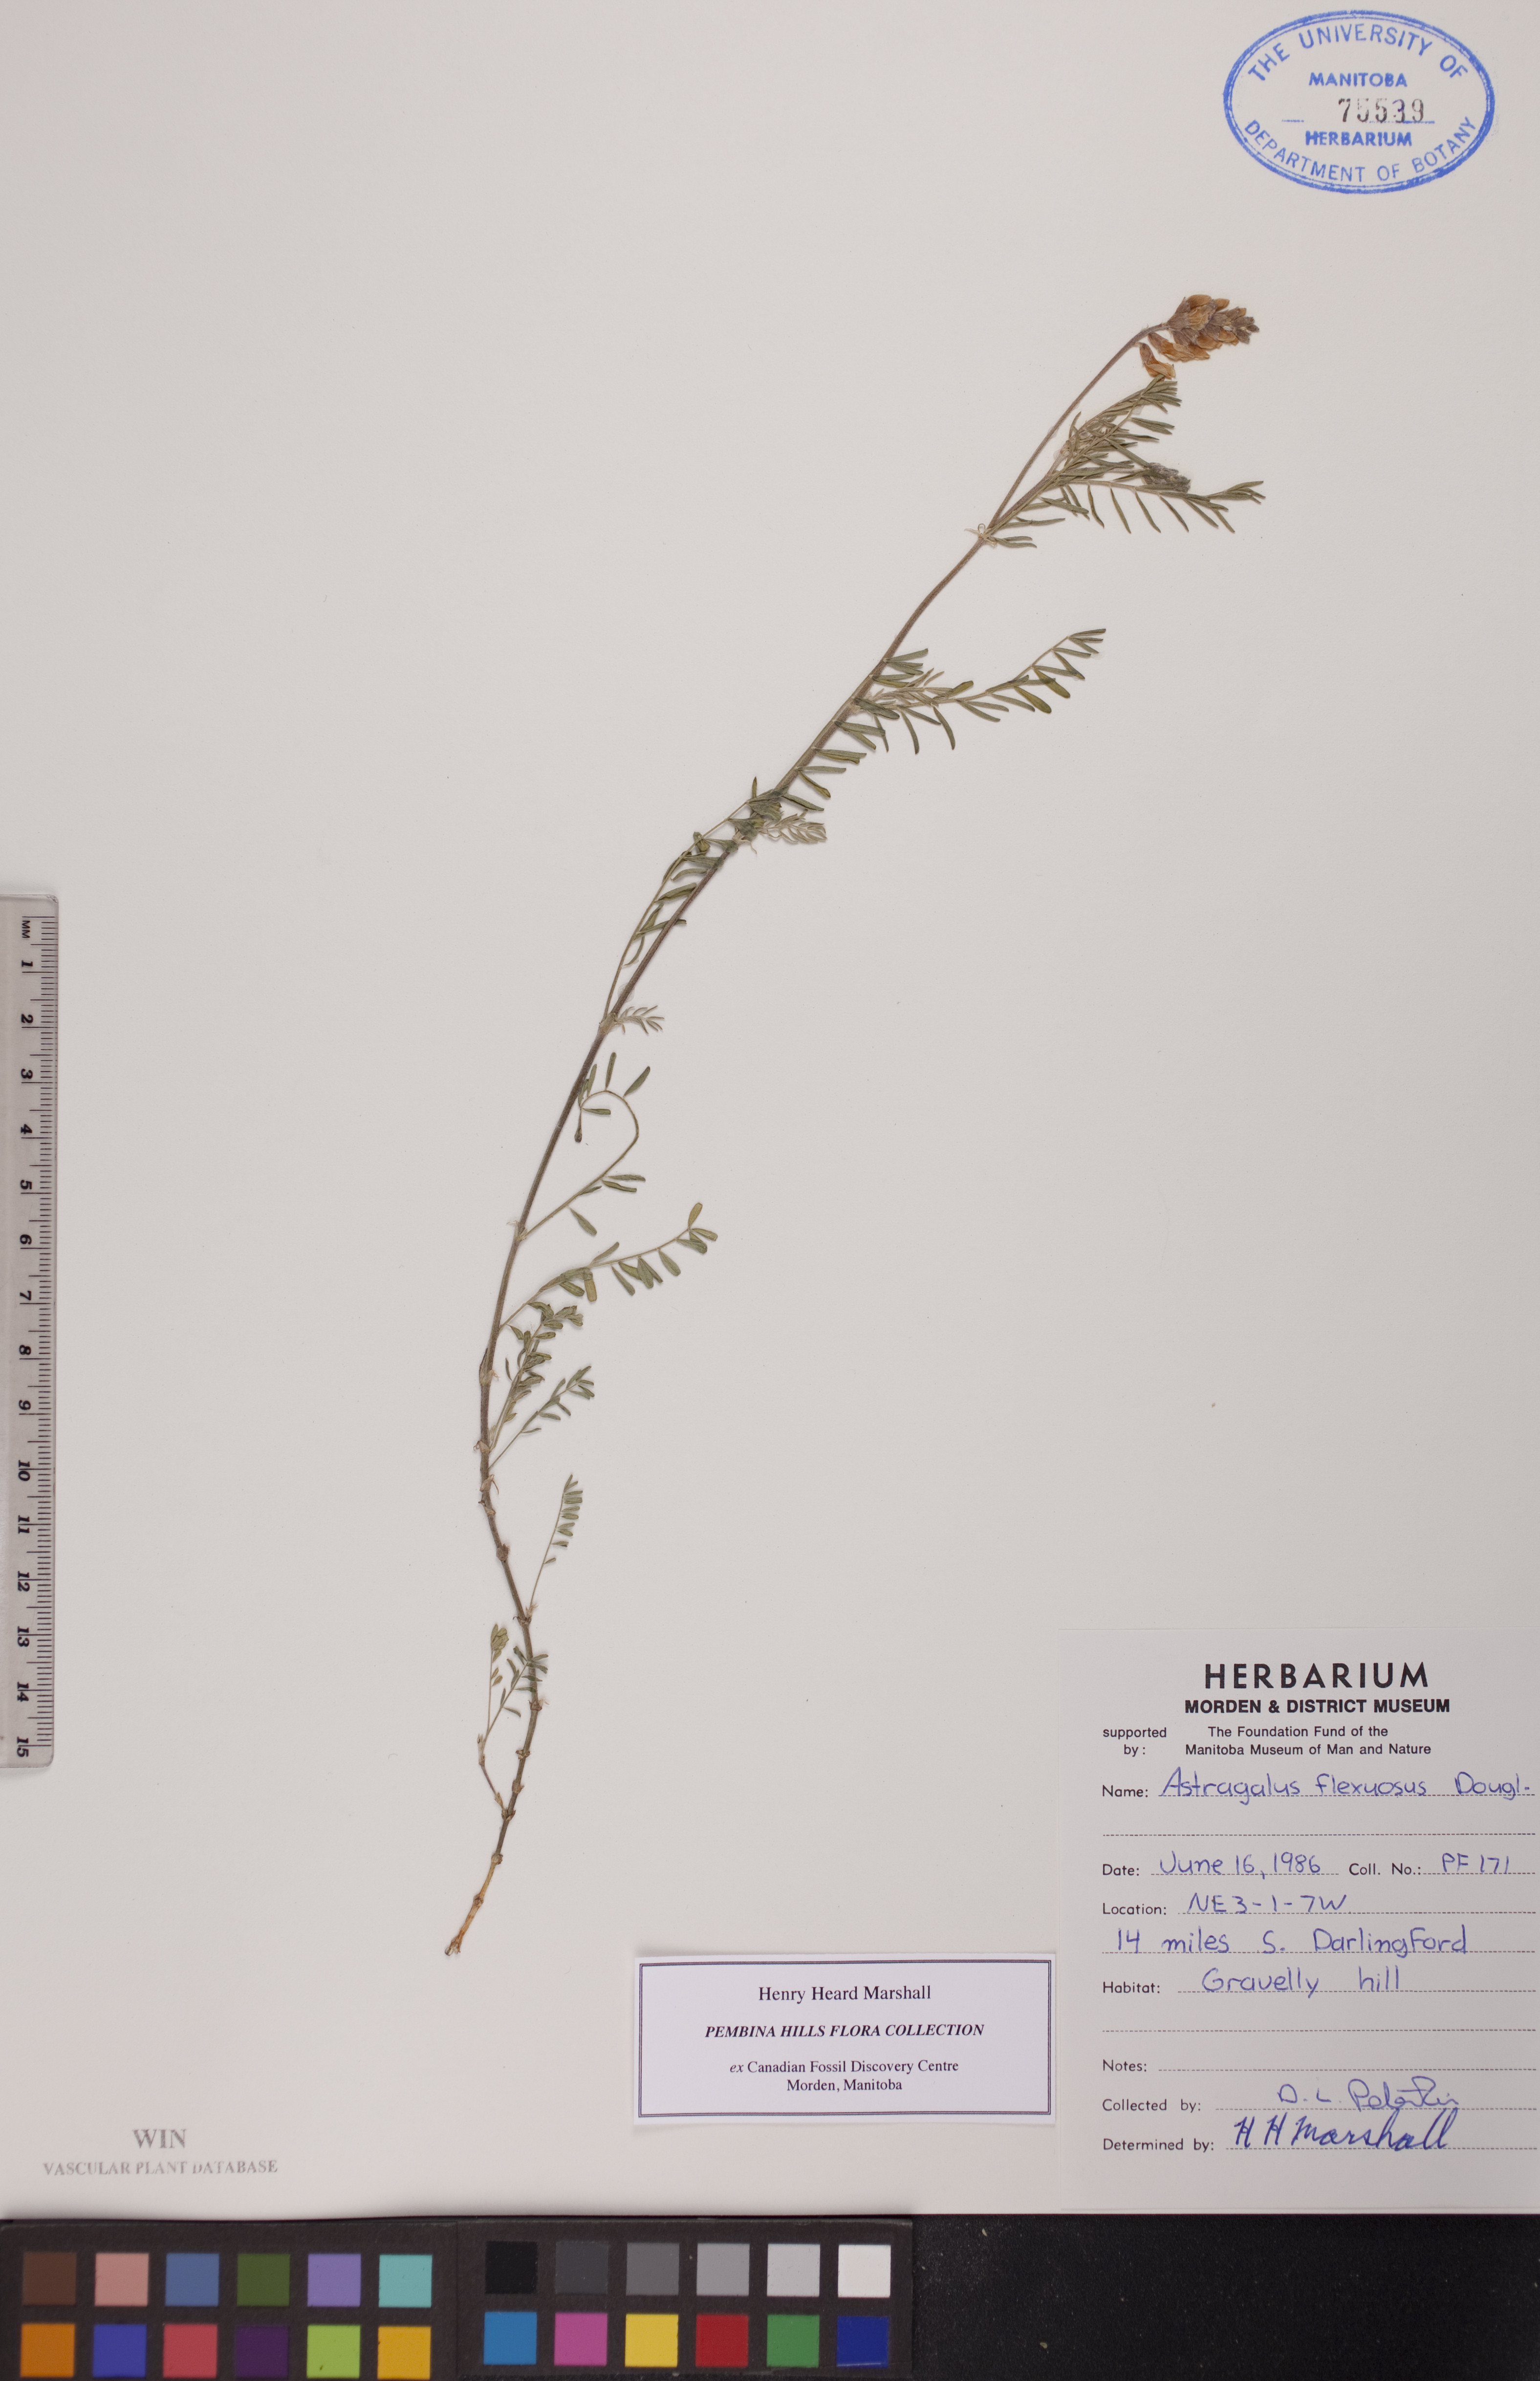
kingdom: Plantae
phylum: Tracheophyta
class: Magnoliopsida
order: Fabales
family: Fabaceae
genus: Astragalus
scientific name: Astragalus flexuosus
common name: Pliant milk-vetch
